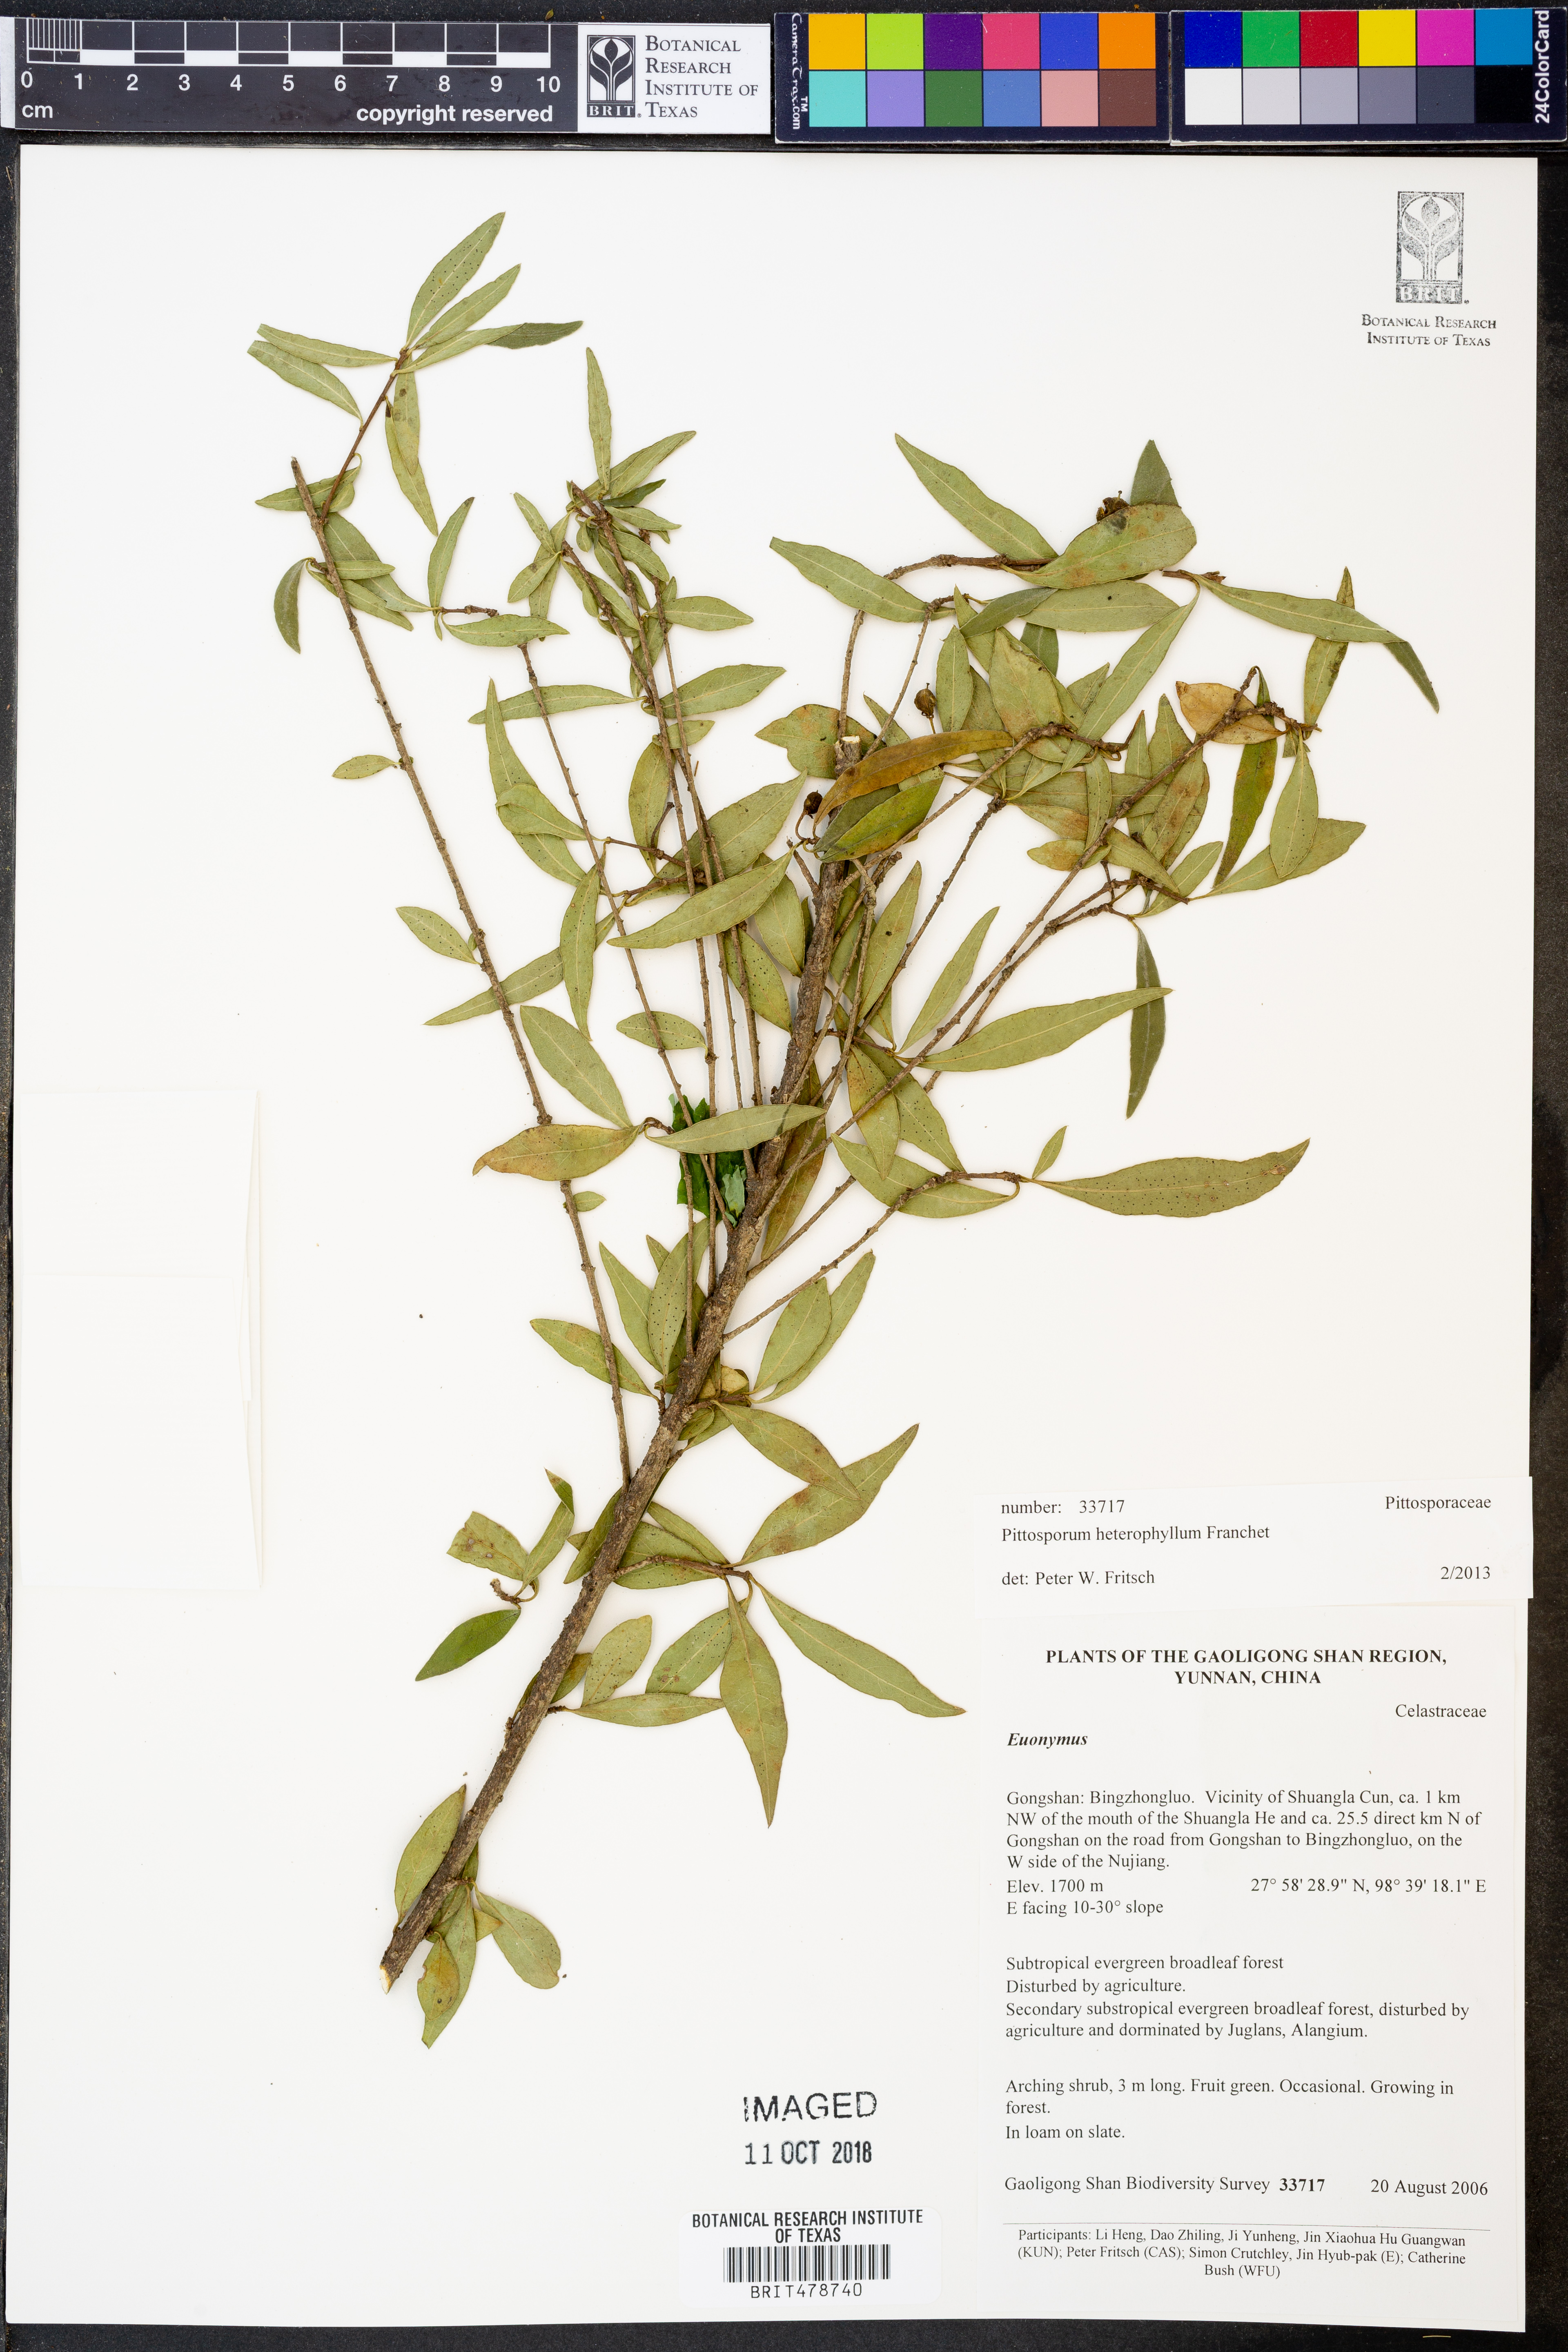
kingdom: Plantae
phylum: Tracheophyta
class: Magnoliopsida
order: Apiales
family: Pittosporaceae
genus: Pittosporum
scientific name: Pittosporum heterophyllum
